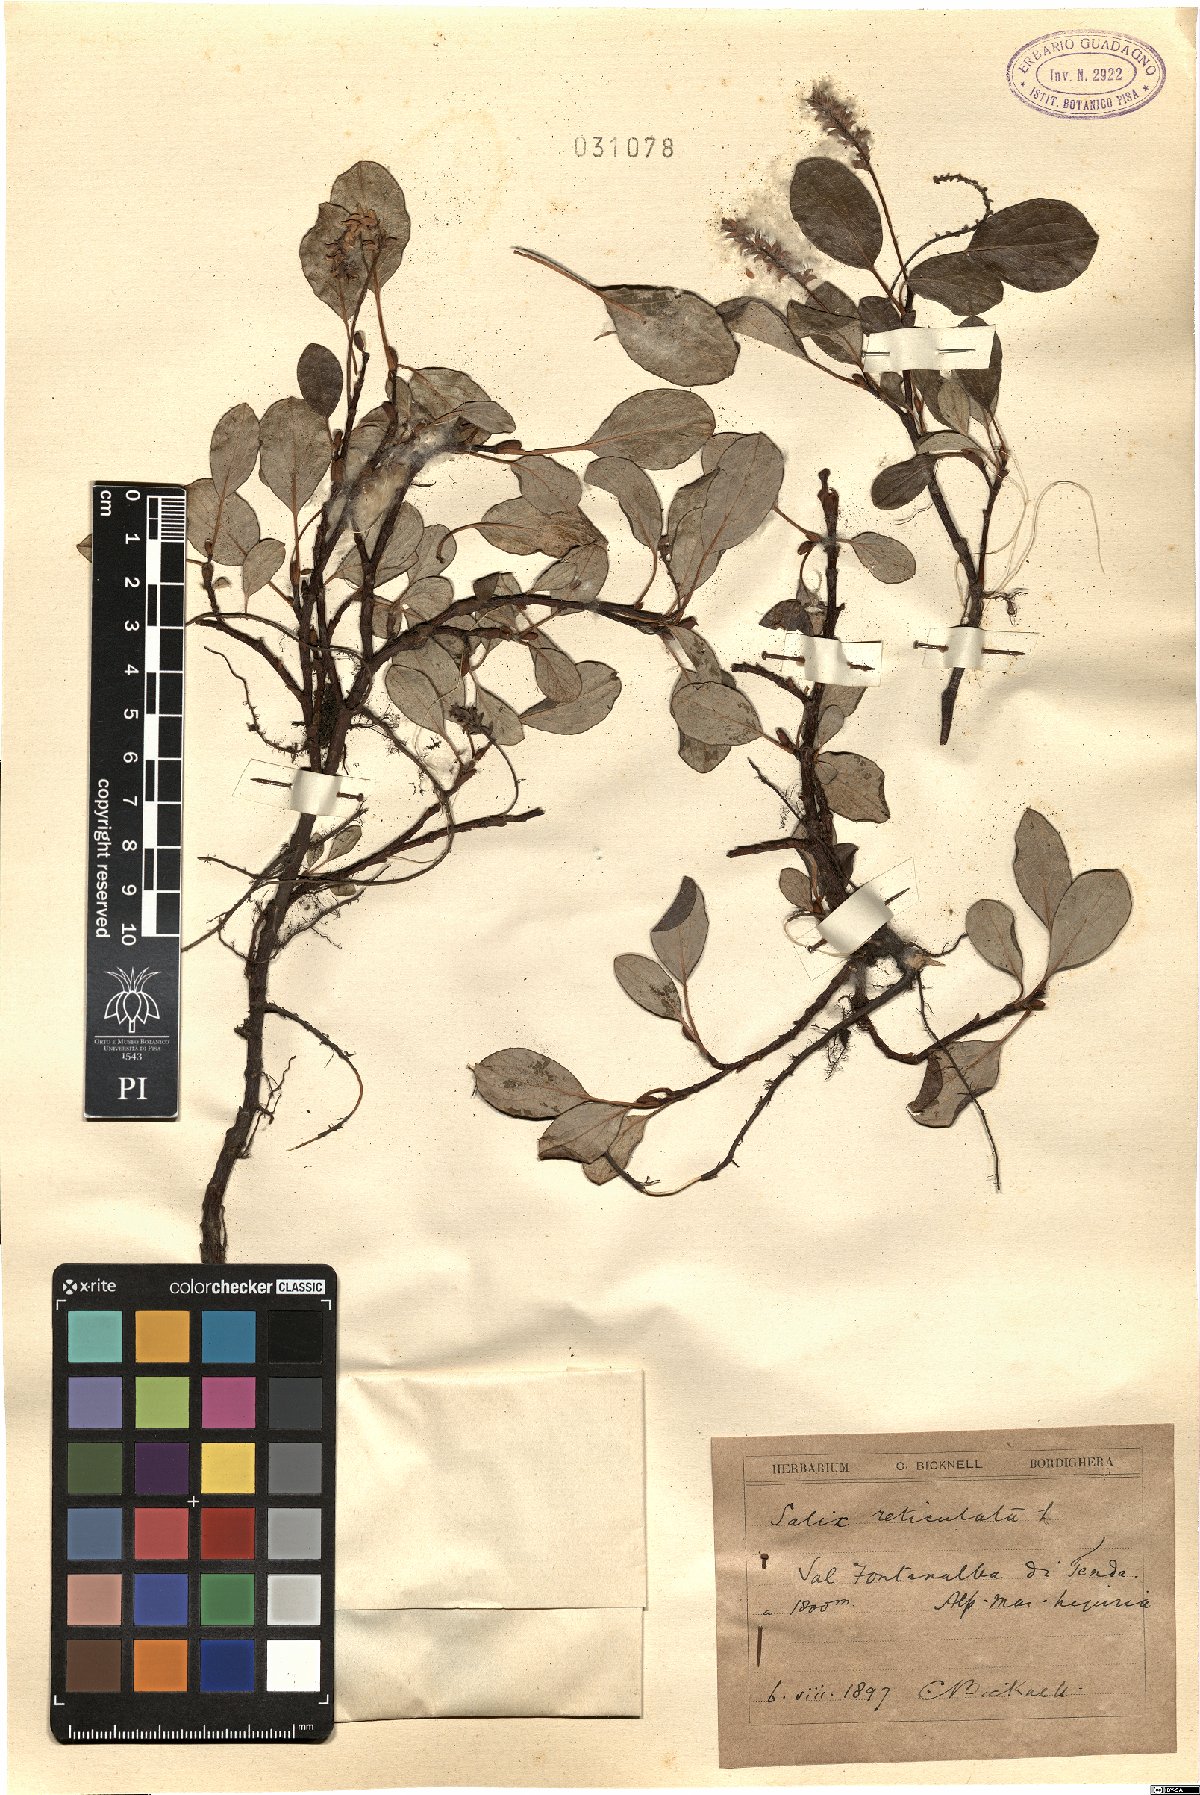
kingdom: Plantae
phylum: Tracheophyta
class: Magnoliopsida
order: Malpighiales
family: Salicaceae
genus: Salix
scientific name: Salix reticulata
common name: Net-leaved willow
